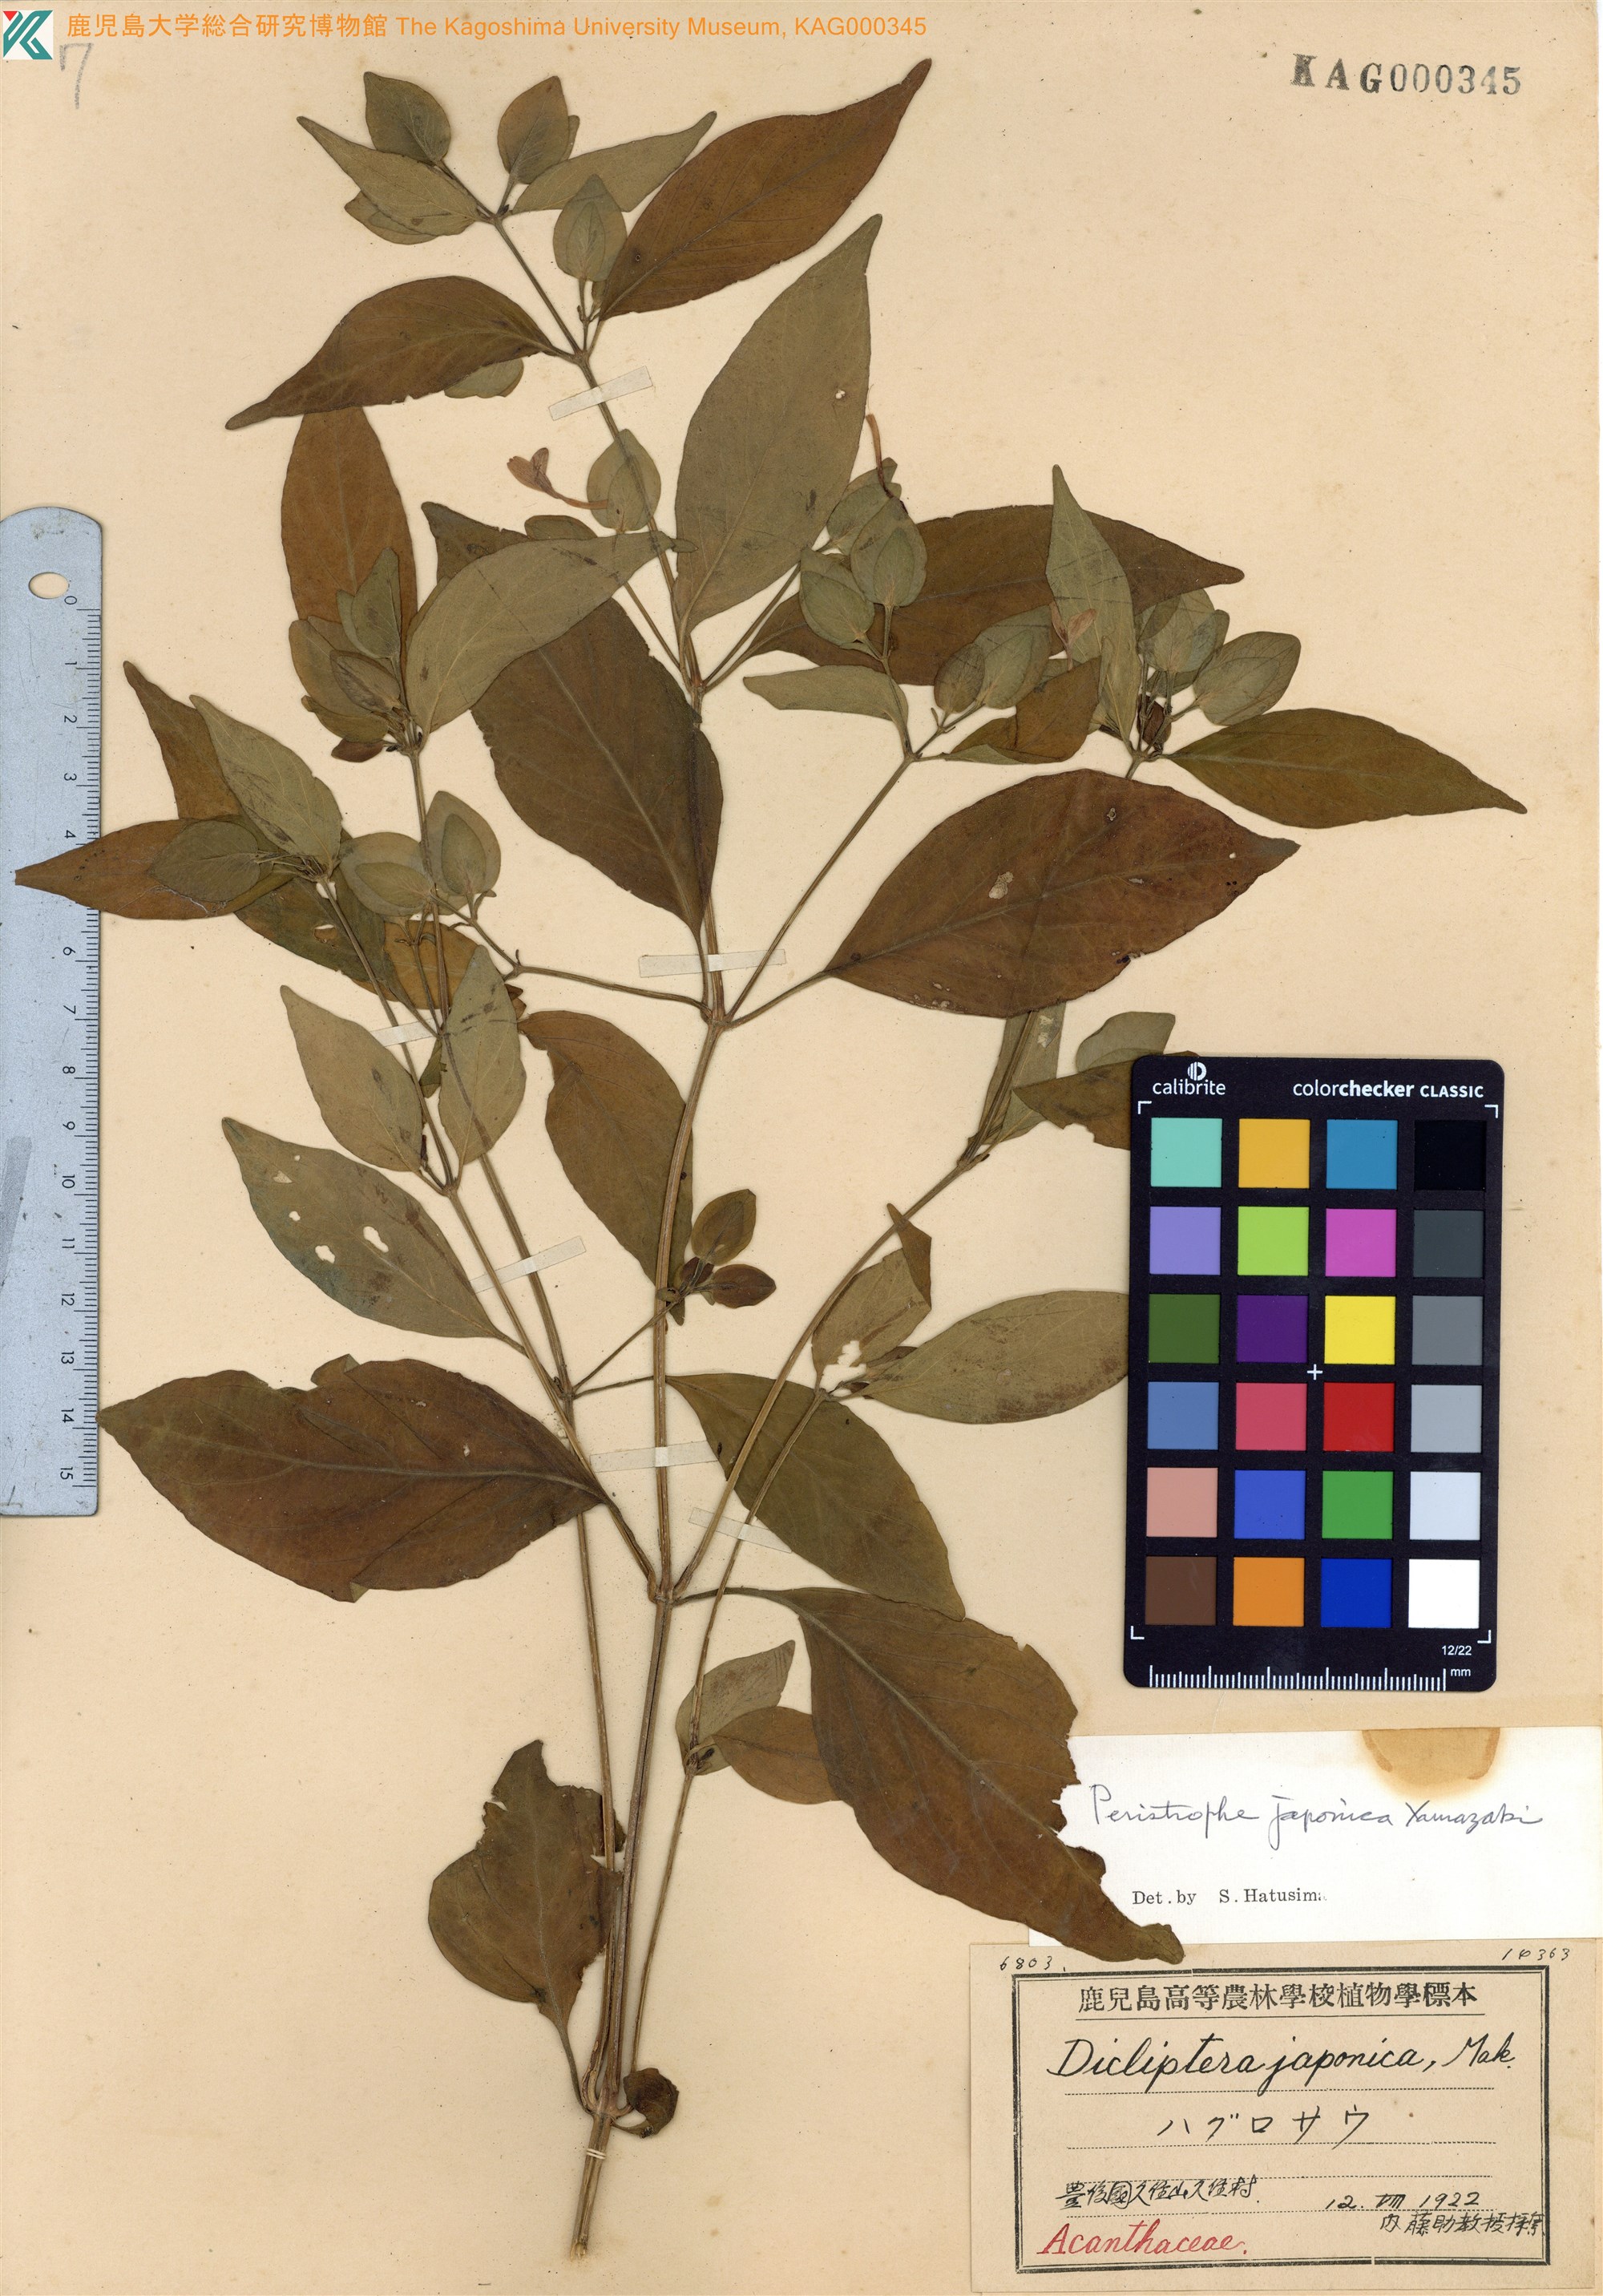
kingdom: Plantae
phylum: Tracheophyta
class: Magnoliopsida
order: Lamiales
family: Acanthaceae
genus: Dicliptera
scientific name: Dicliptera japonica
